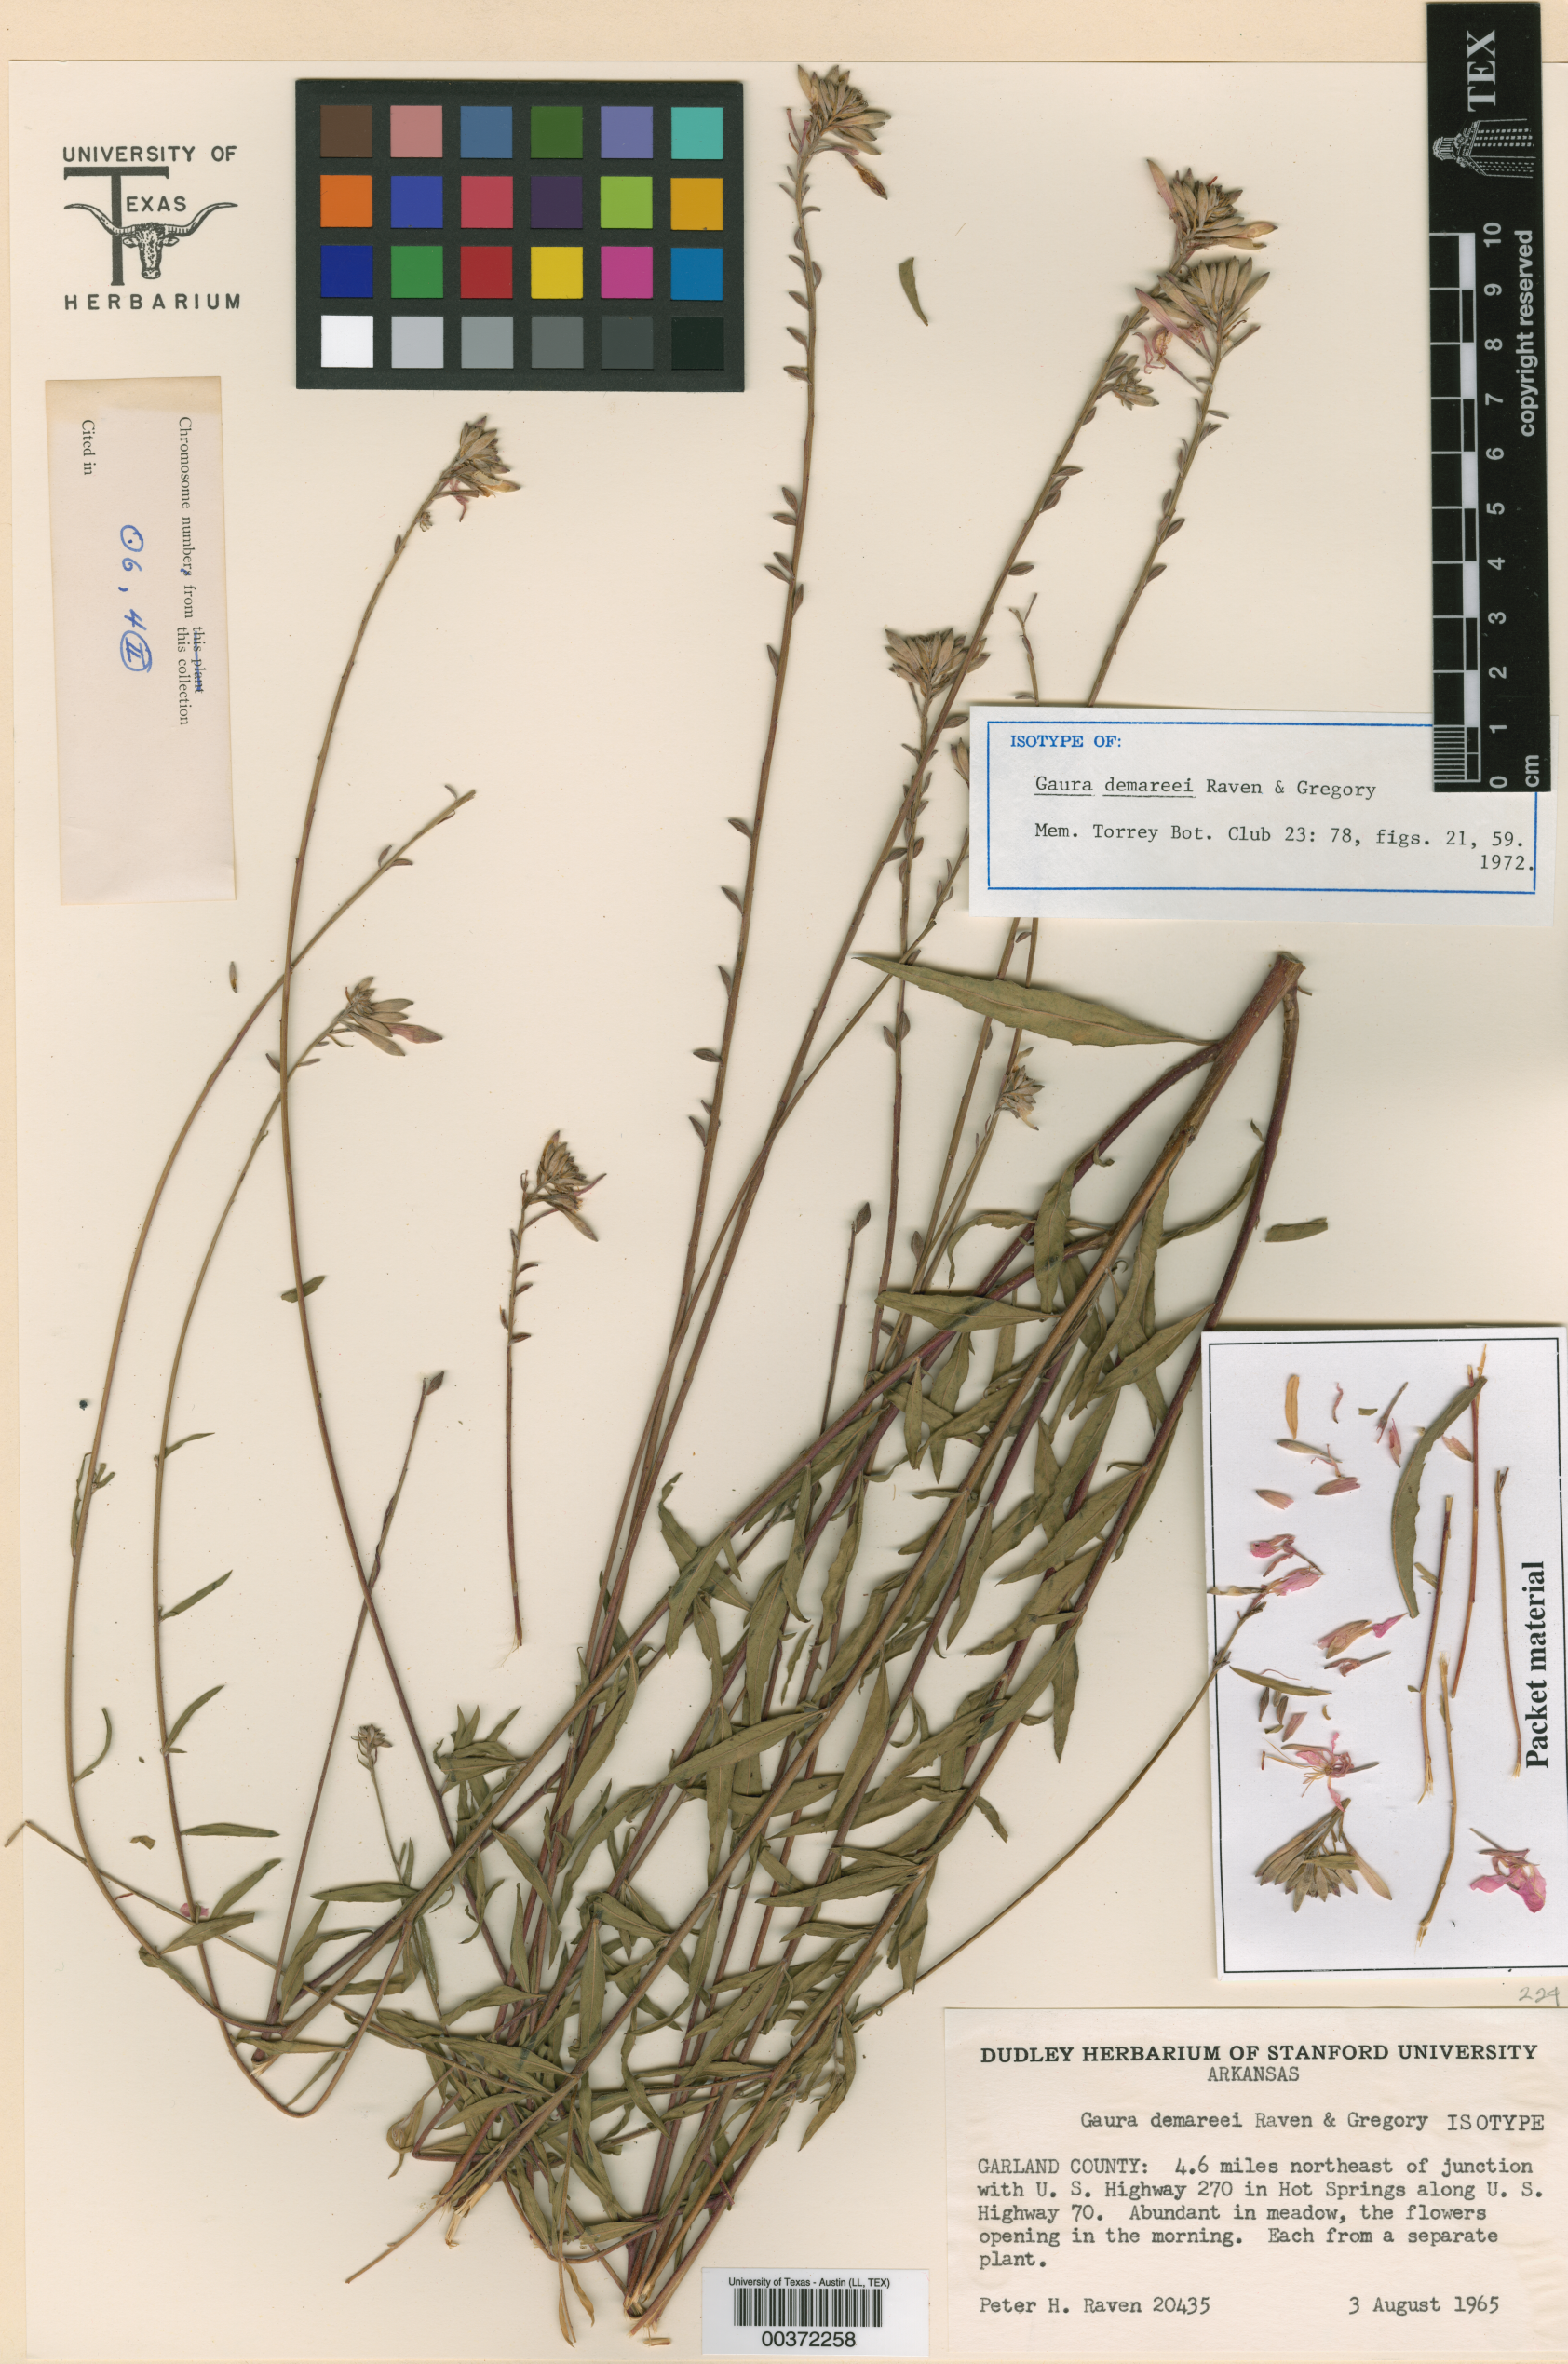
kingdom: Plantae
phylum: Tracheophyta
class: Magnoliopsida
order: Myrtales
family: Onagraceae
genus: Oenothera
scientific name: Oenothera demareei
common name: Demaree's beeblossom
